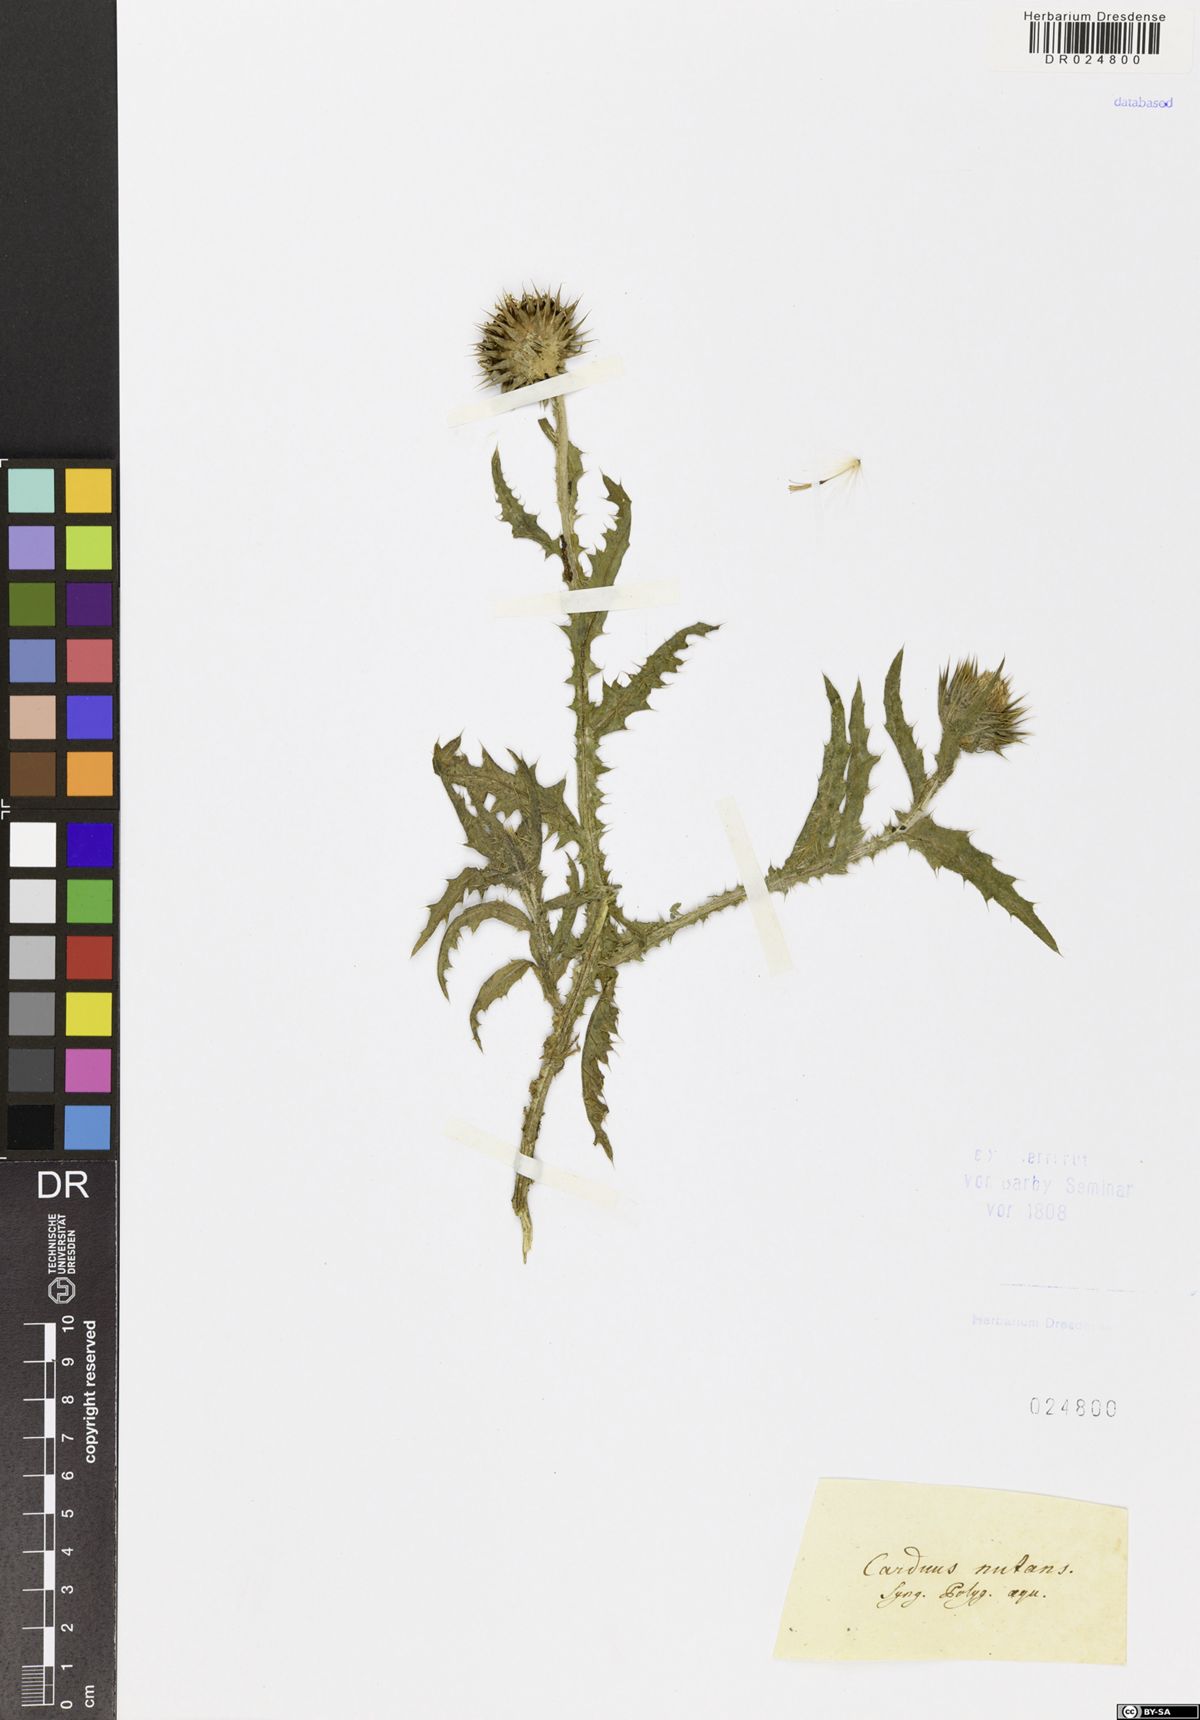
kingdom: Plantae
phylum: Tracheophyta
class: Magnoliopsida
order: Asterales
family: Asteraceae
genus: Carduus
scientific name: Carduus nutans
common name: Musk thistle
